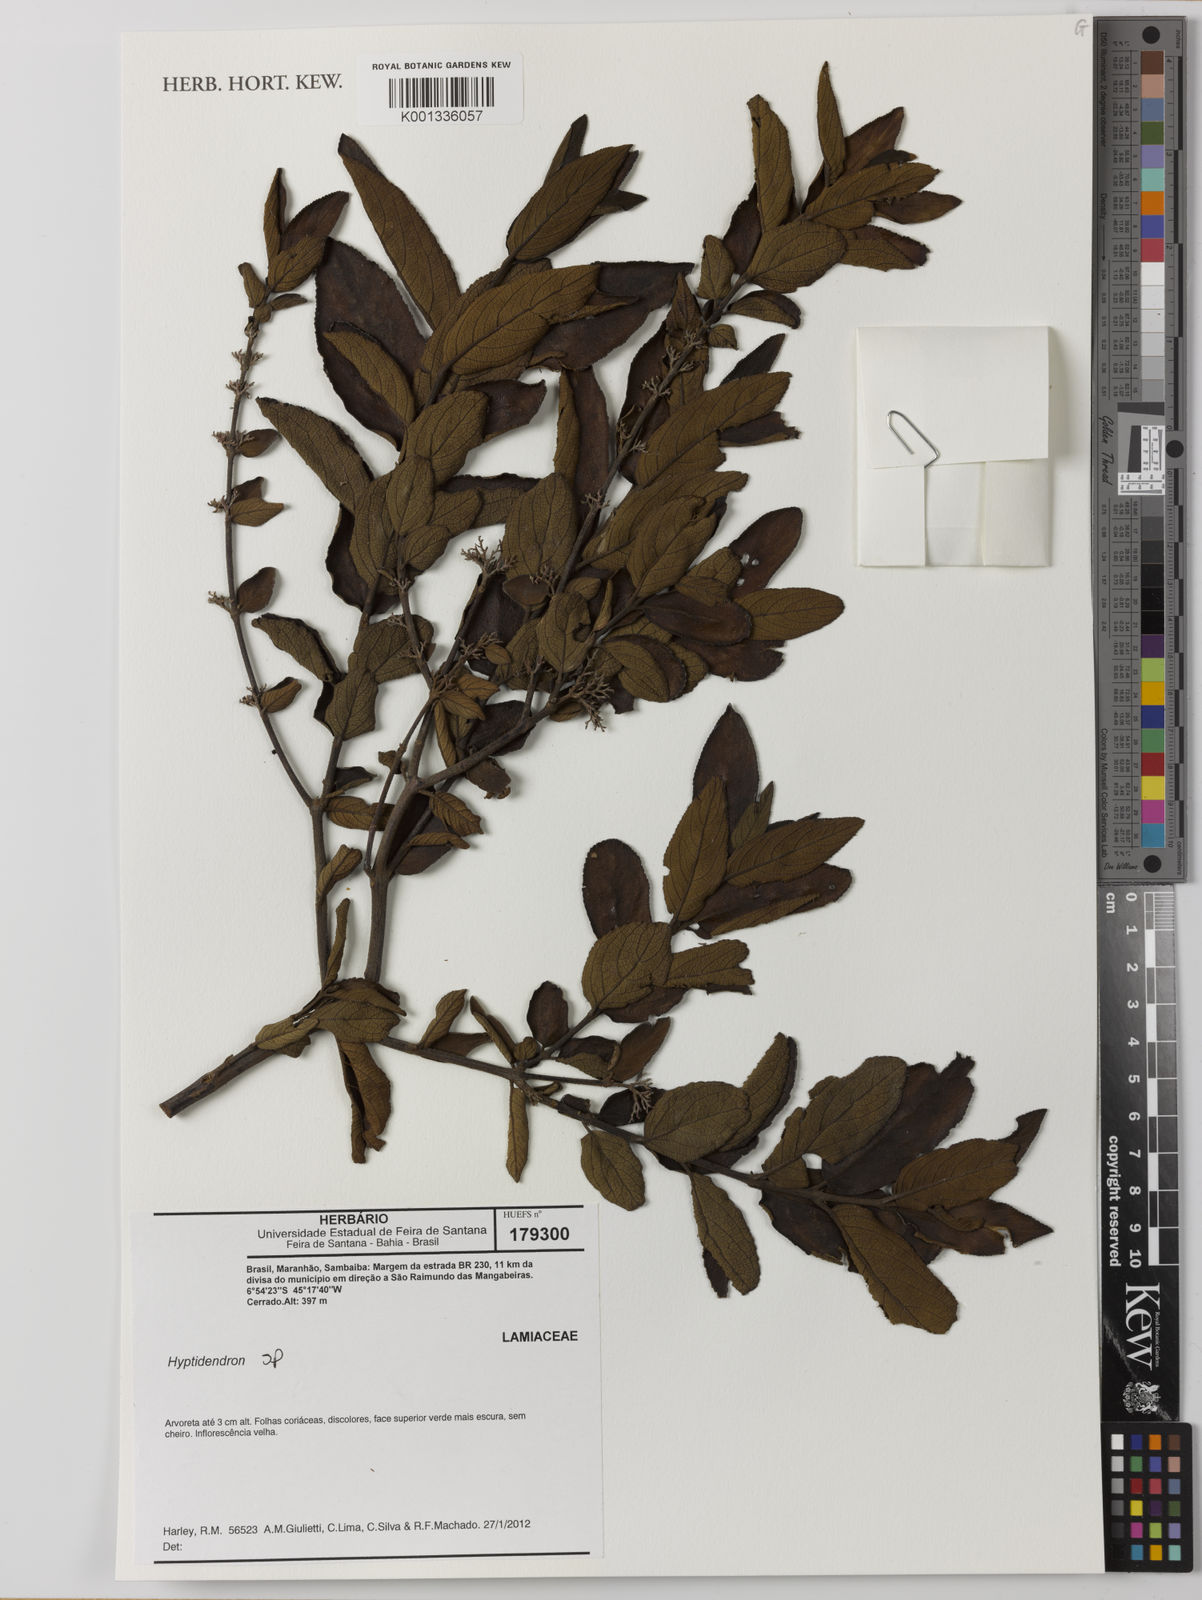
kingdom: Plantae
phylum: Tracheophyta
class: Magnoliopsida
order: Lamiales
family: Lamiaceae
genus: Hyptidendron
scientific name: Hyptidendron conspersum
